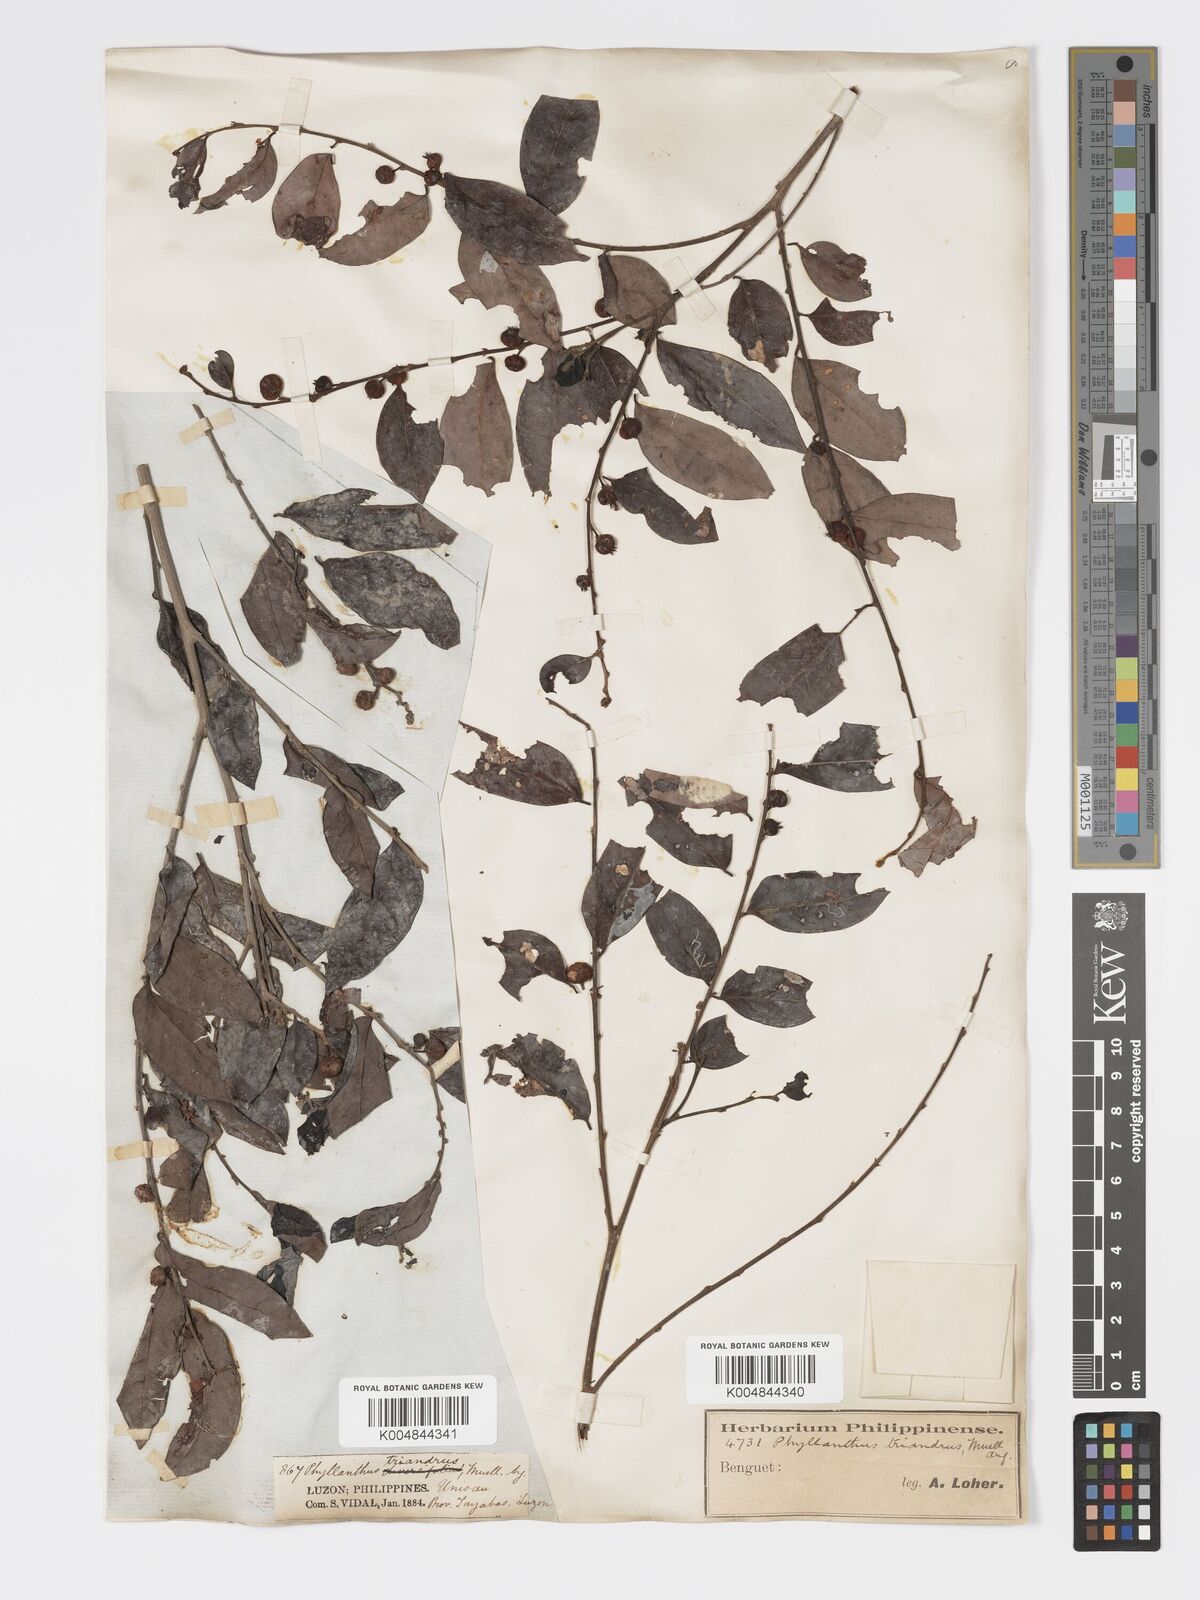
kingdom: Plantae
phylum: Tracheophyta
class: Magnoliopsida
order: Malpighiales
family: Phyllanthaceae
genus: Glochidion
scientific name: Glochidion triandrum
